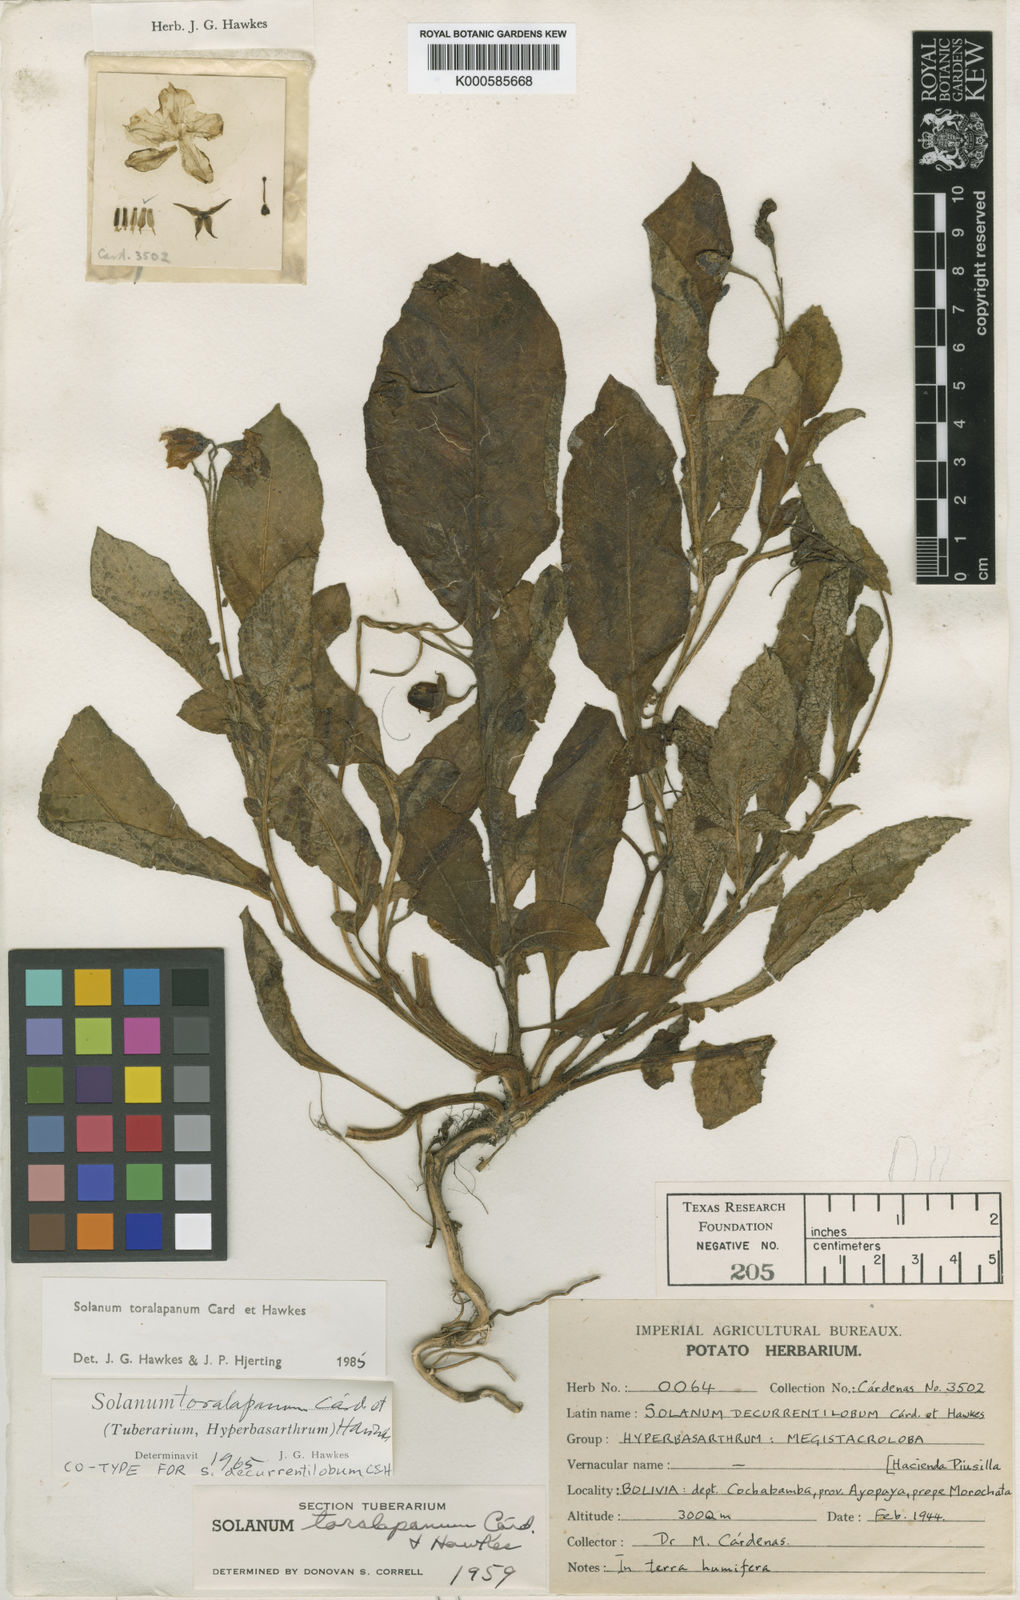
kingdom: Plantae
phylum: Tracheophyta
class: Magnoliopsida
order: Solanales
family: Solanaceae
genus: Solanum
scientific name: Solanum
